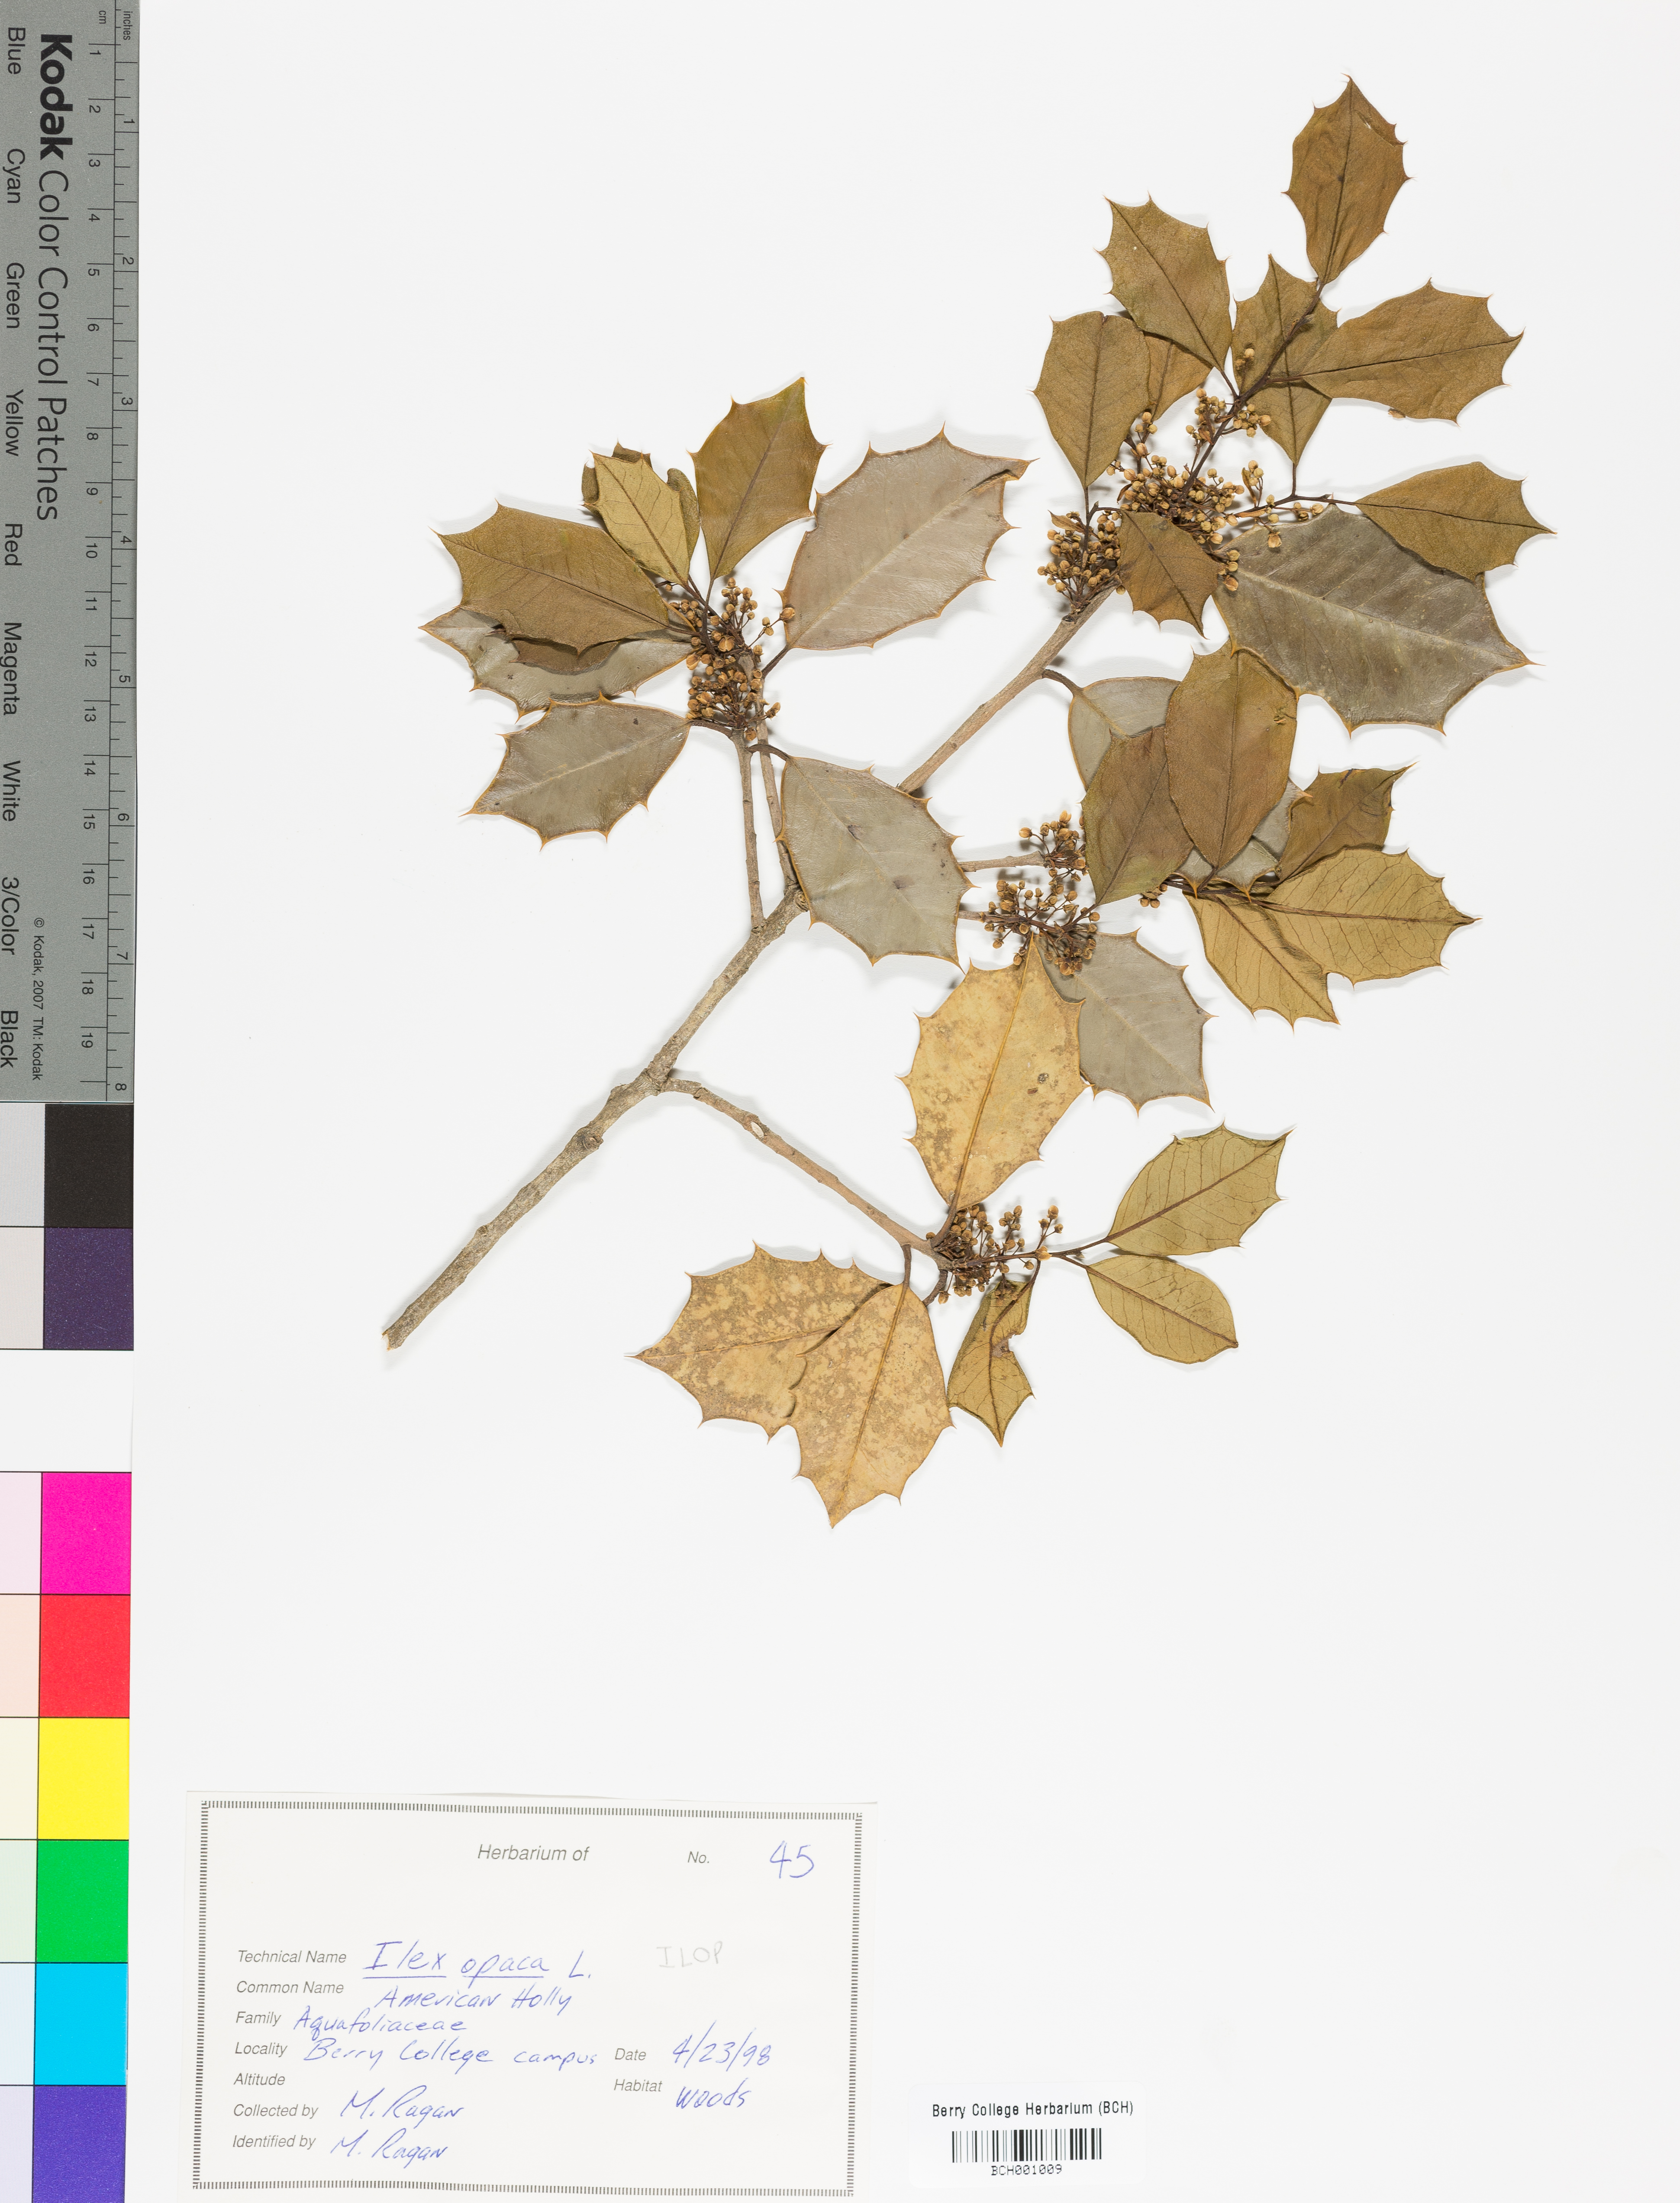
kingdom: Plantae
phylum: Tracheophyta
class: Magnoliopsida
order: Aquifoliales
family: Aquifoliaceae
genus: Ilex
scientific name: Ilex opaca
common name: American holly
